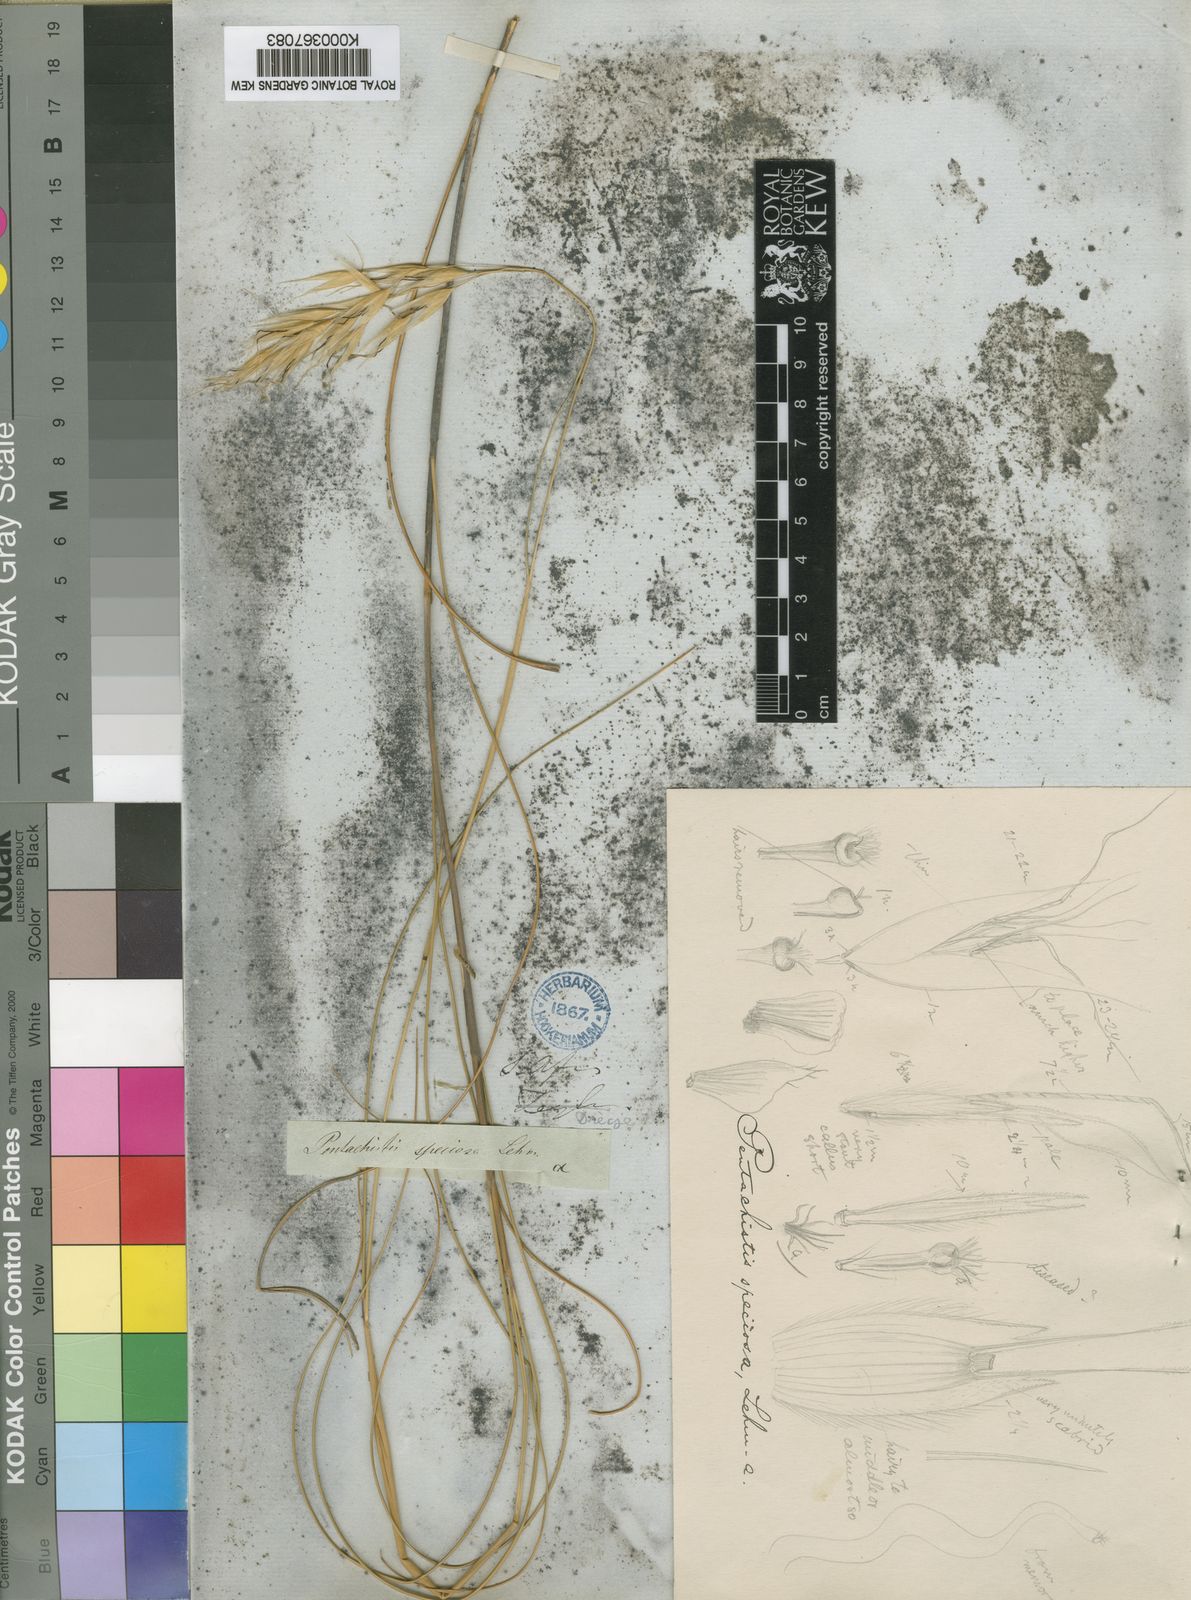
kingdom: Plantae
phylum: Tracheophyta
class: Liliopsida
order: Poales
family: Poaceae
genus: Pentameris
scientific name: Pentameris macrocalycina
